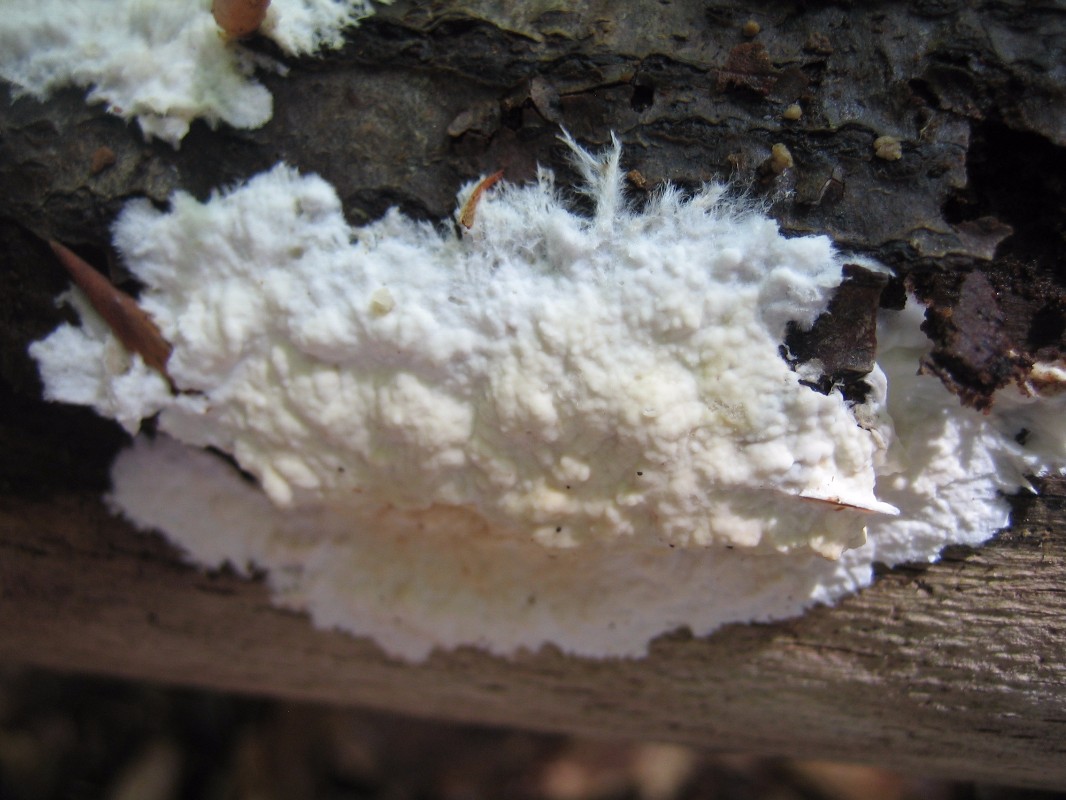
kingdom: Fungi
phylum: Basidiomycota
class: Agaricomycetes
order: Polyporales
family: Phanerochaetaceae
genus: Phanerochaete
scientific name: Phanerochaete velutina
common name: dunet randtråd
